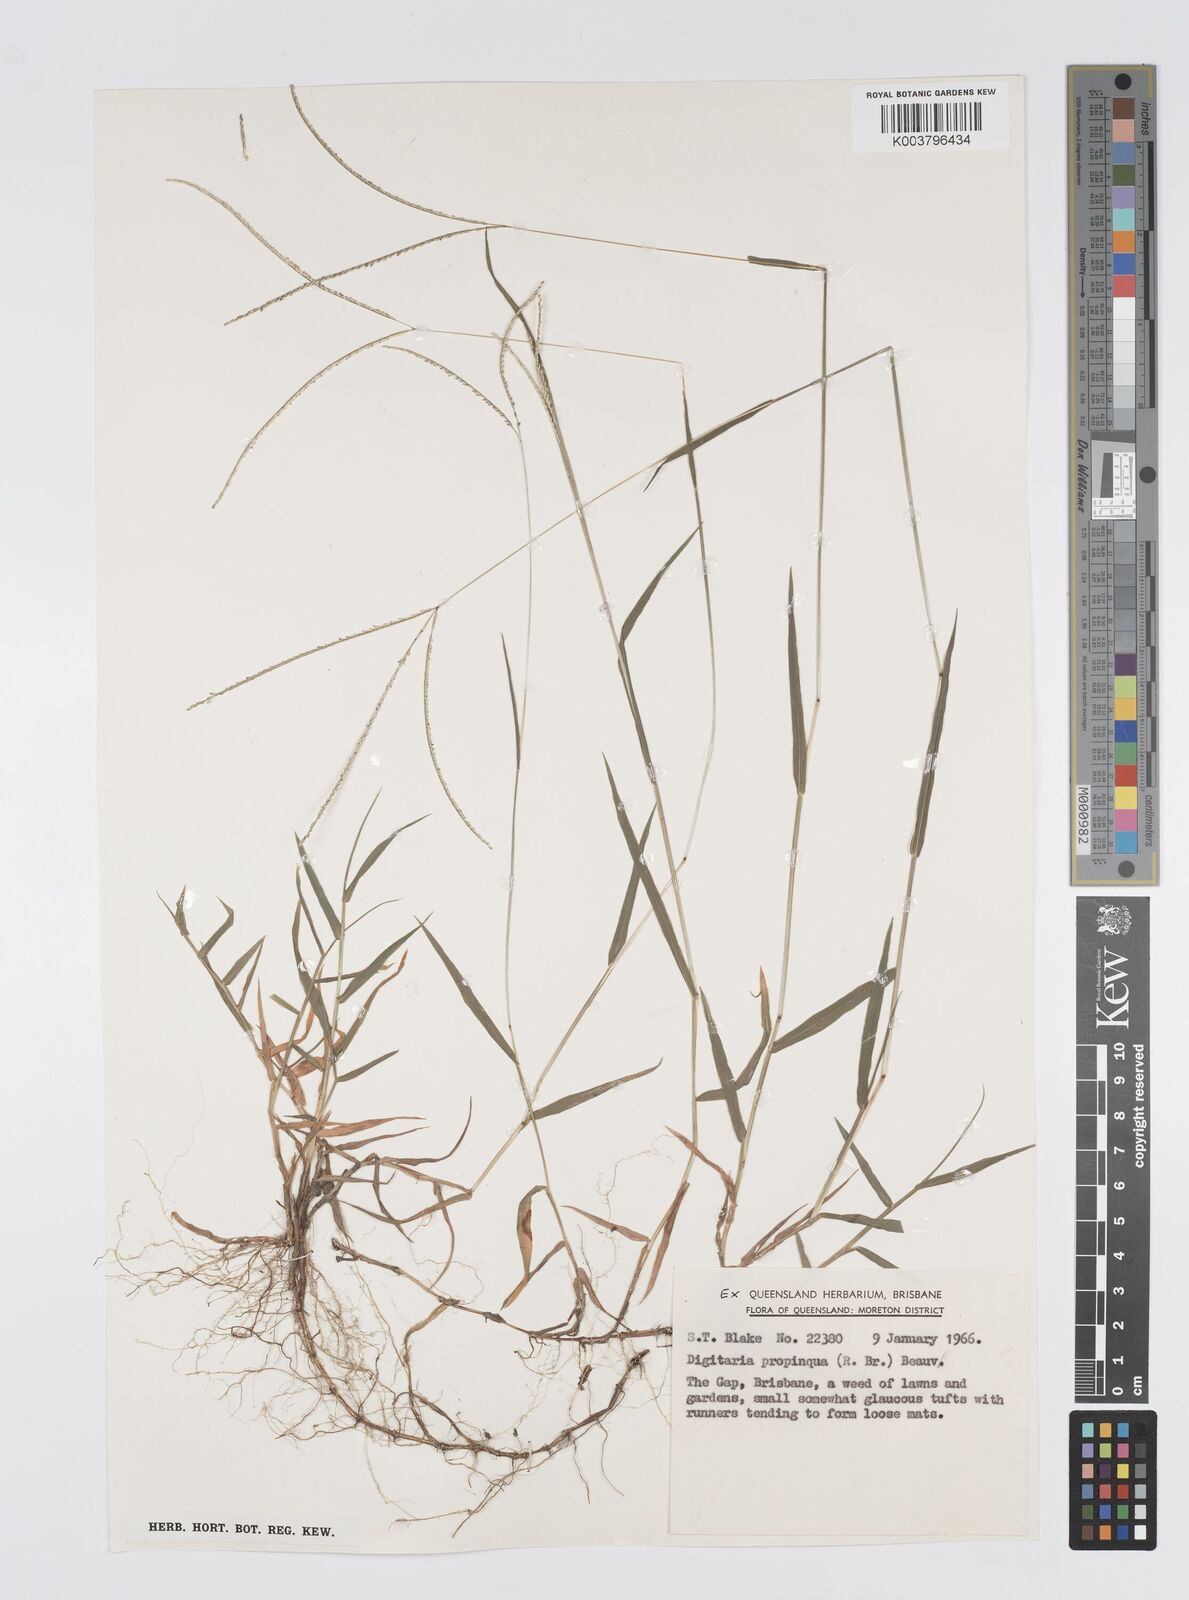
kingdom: Plantae
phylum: Tracheophyta
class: Liliopsida
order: Poales
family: Poaceae
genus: Digitaria
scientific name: Digitaria longiflora
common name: Wire crabgrass
